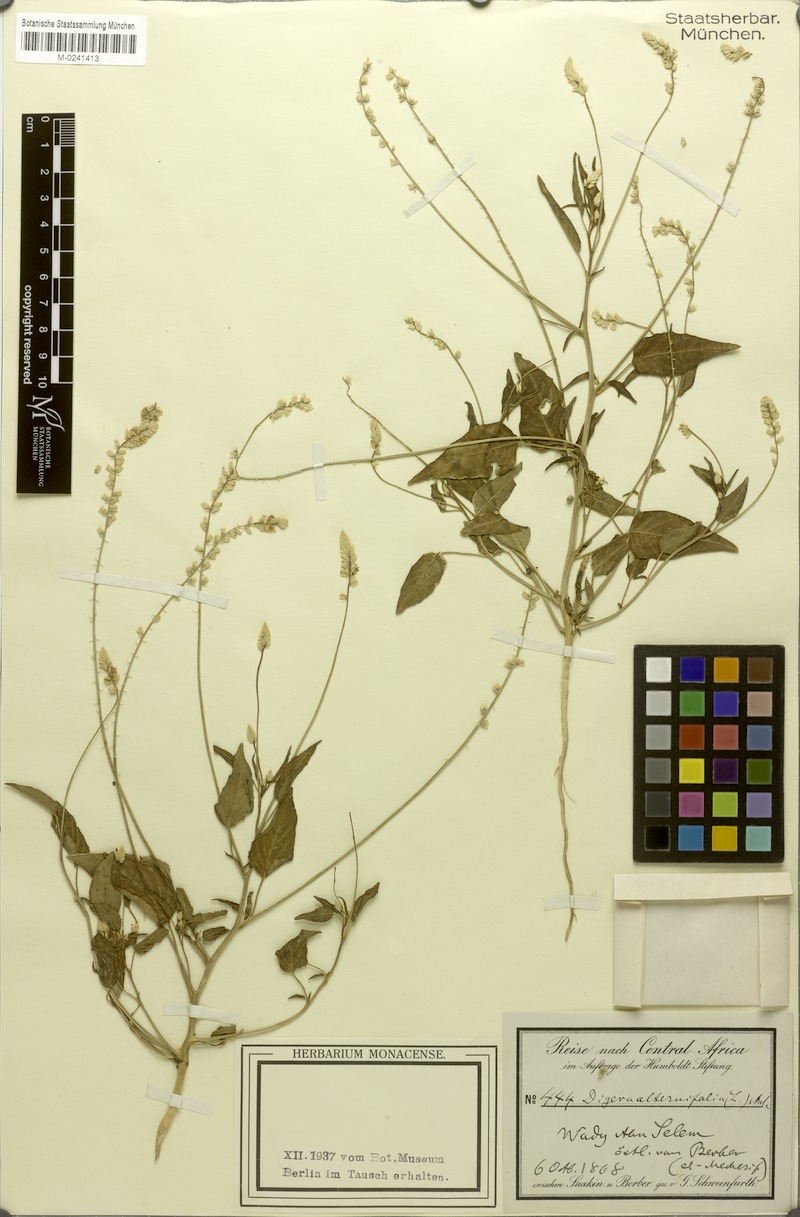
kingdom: Plantae
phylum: Tracheophyta
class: Magnoliopsida
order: Caryophyllales
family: Amaranthaceae
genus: Digera
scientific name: Digera muricata
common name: False amaranth
